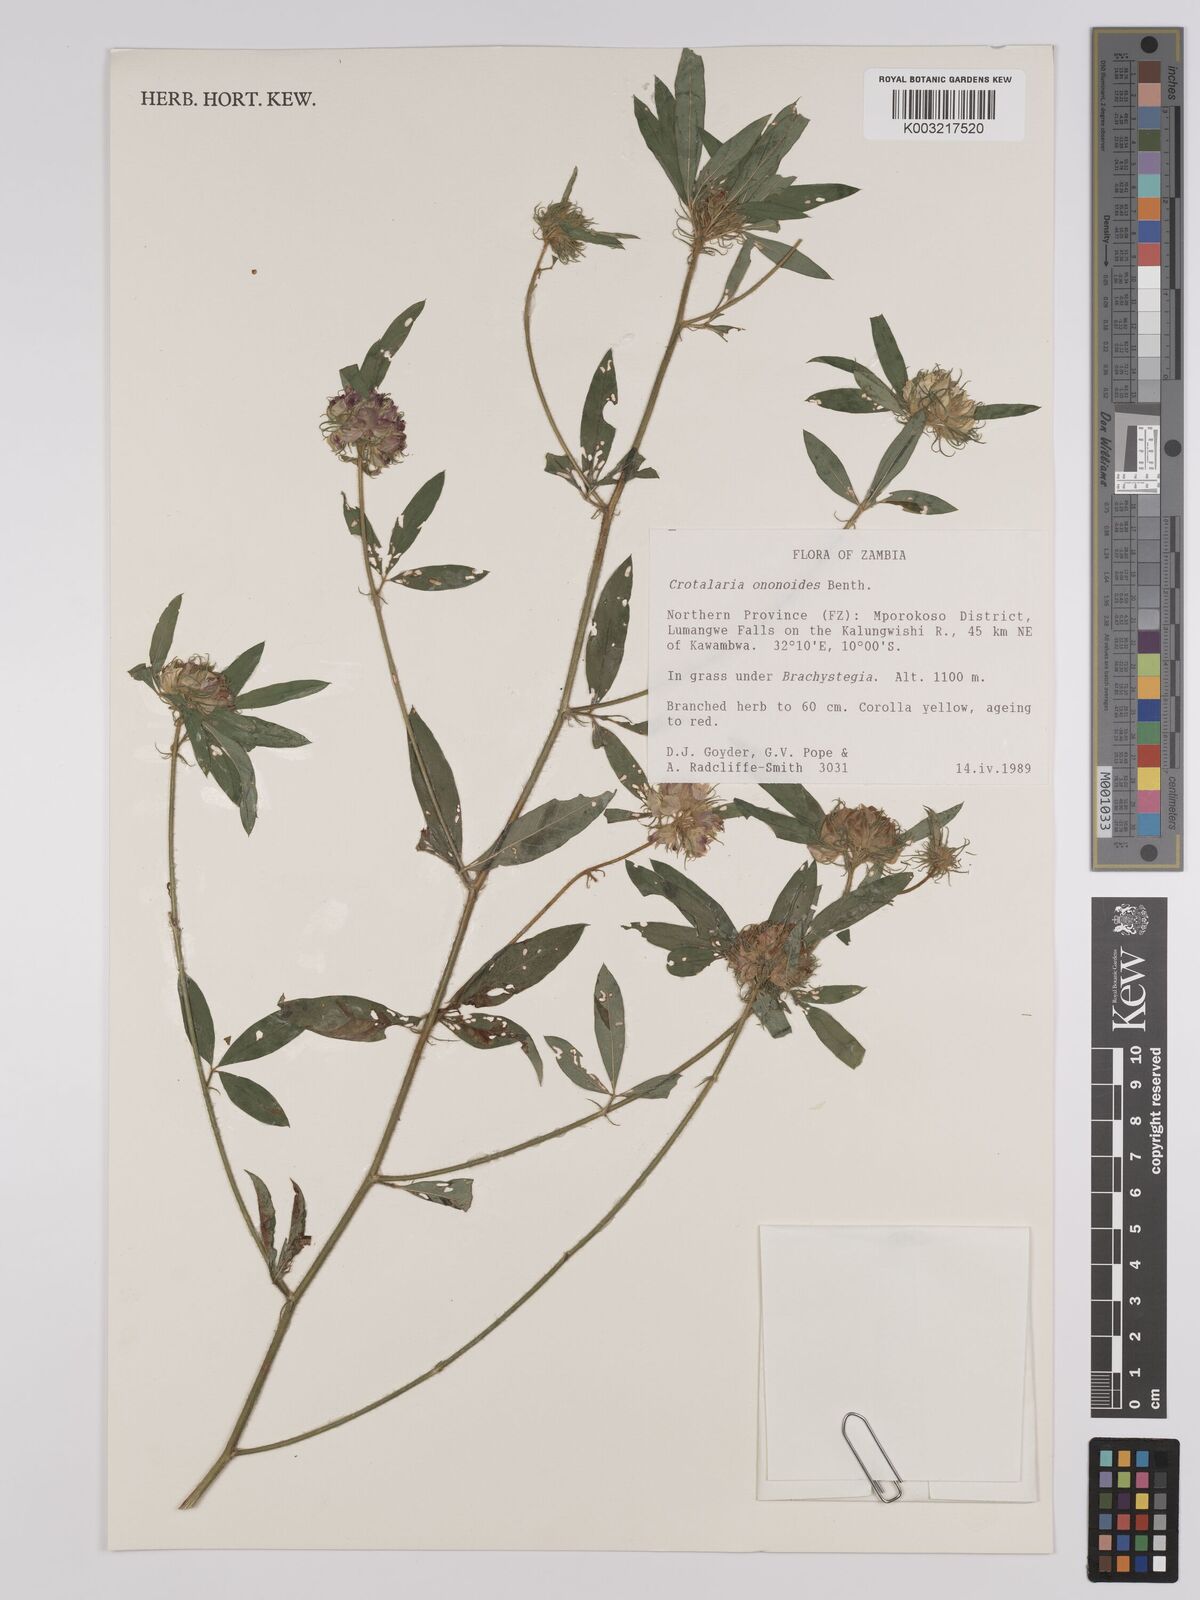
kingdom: Plantae
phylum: Tracheophyta
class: Magnoliopsida
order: Fabales
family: Fabaceae
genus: Crotalaria
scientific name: Crotalaria ononoides
